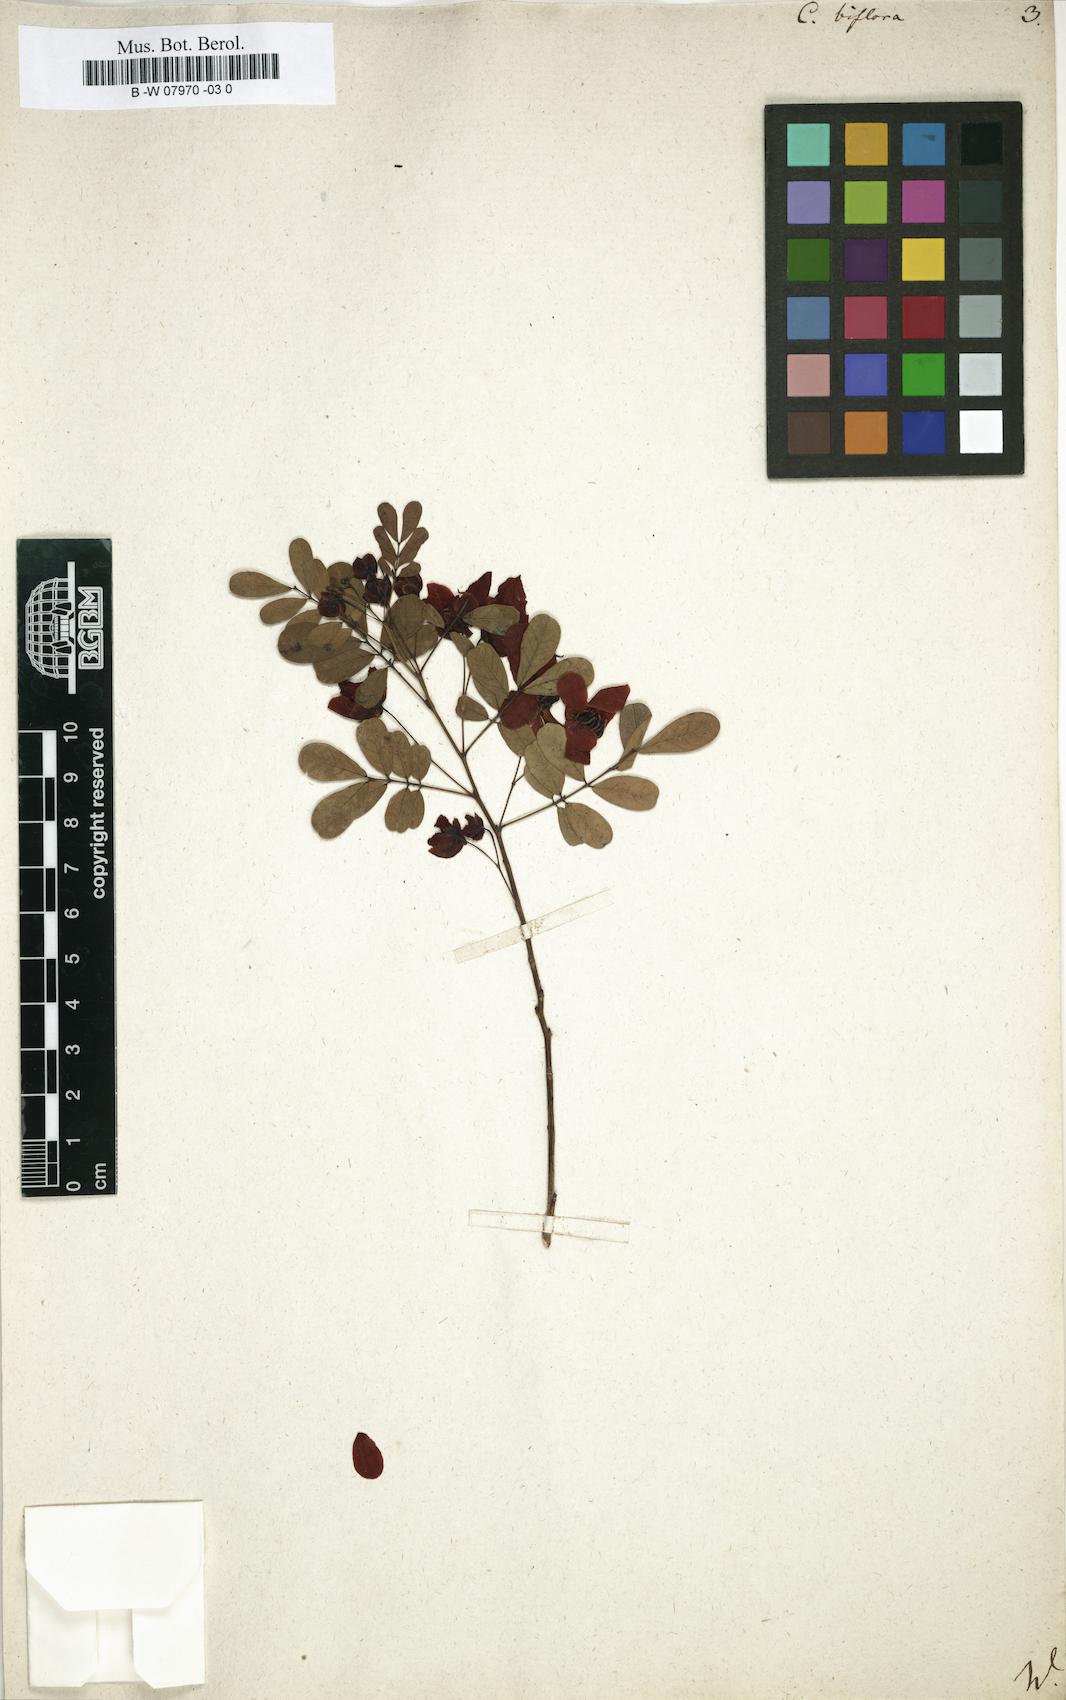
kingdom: Plantae
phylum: Tracheophyta
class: Magnoliopsida
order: Fabales
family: Fabaceae
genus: Senna
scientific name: Senna pallida
